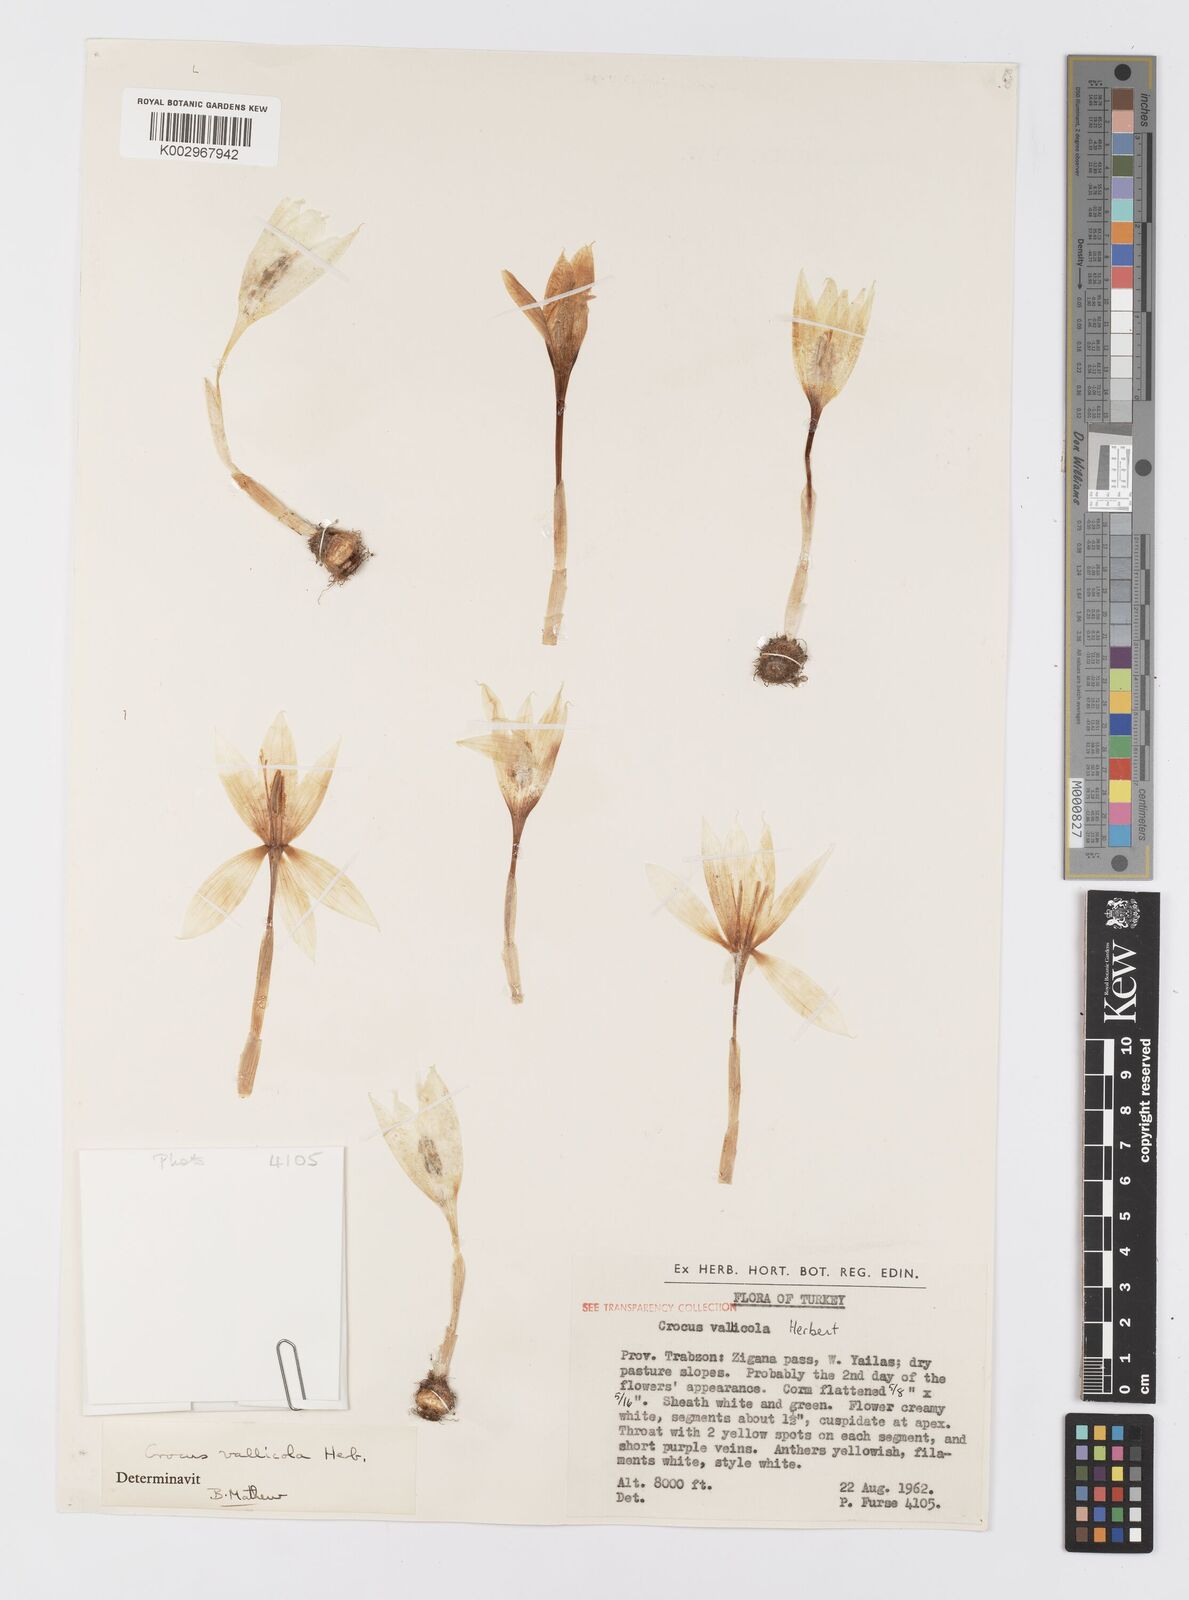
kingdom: Plantae
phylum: Tracheophyta
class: Liliopsida
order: Asparagales
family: Iridaceae
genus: Crocus
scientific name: Crocus vallicola
